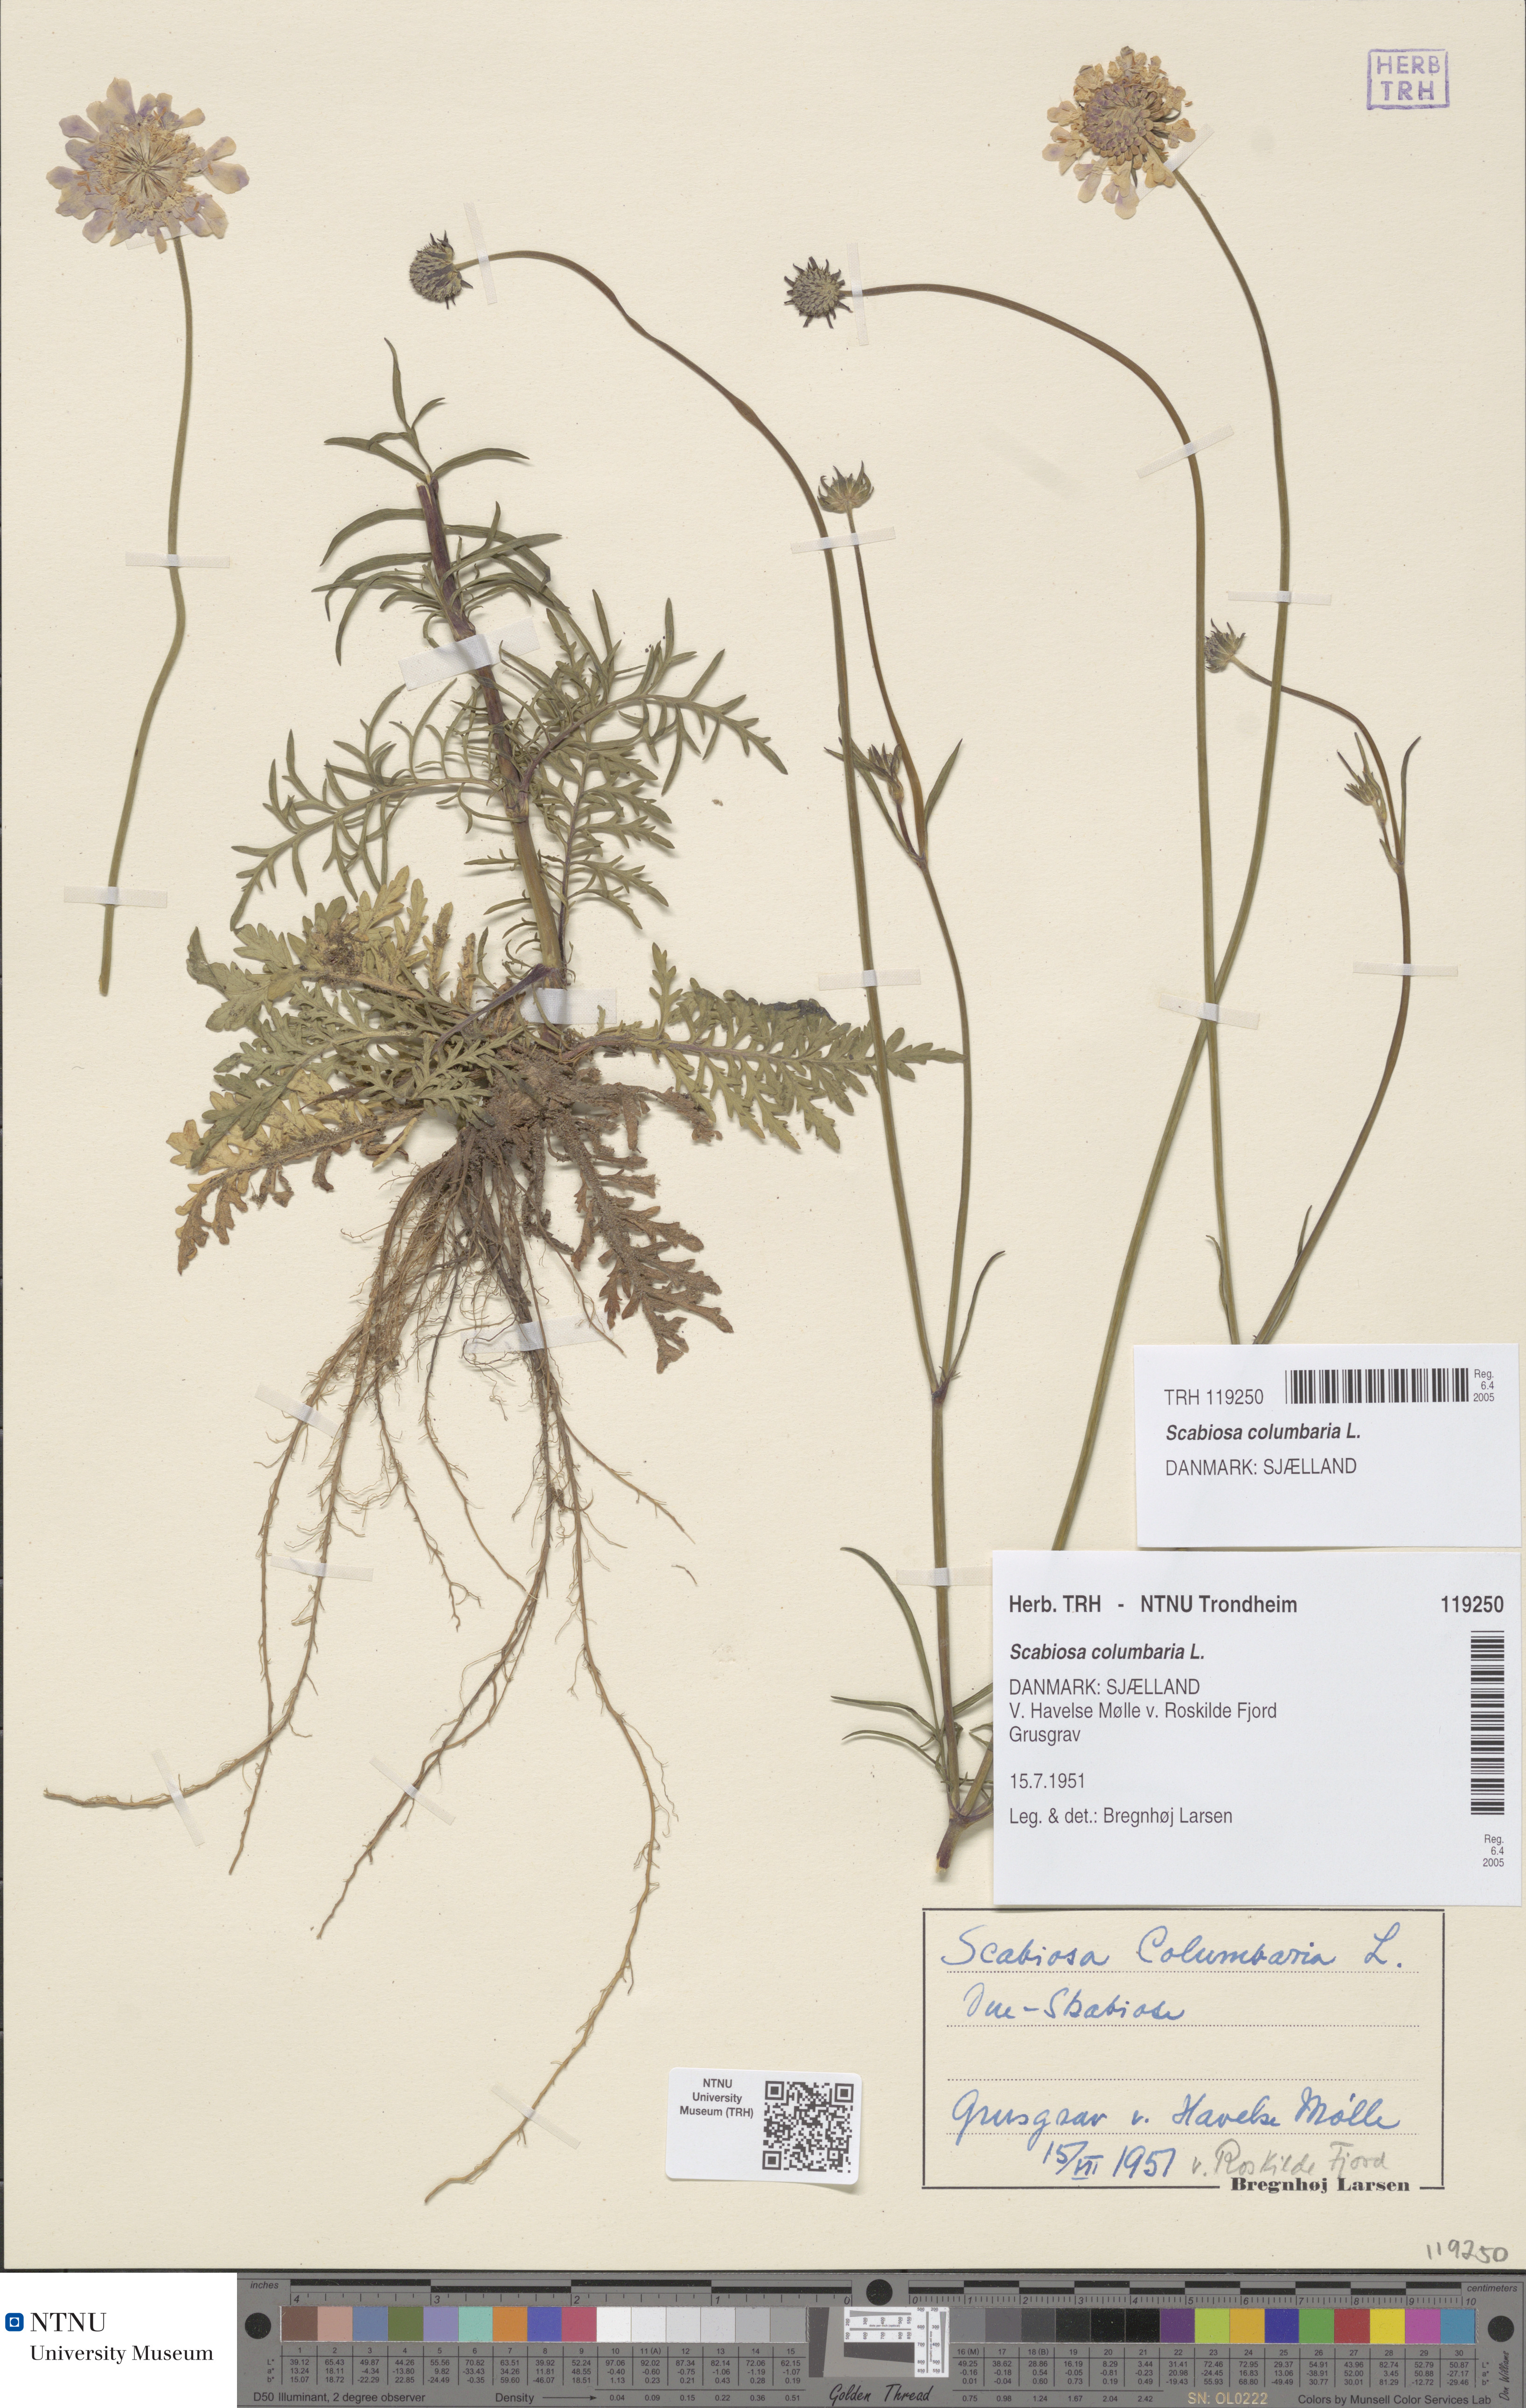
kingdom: Plantae
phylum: Tracheophyta
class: Magnoliopsida
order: Dipsacales
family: Caprifoliaceae
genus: Scabiosa
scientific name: Scabiosa columbaria
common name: Small scabious
